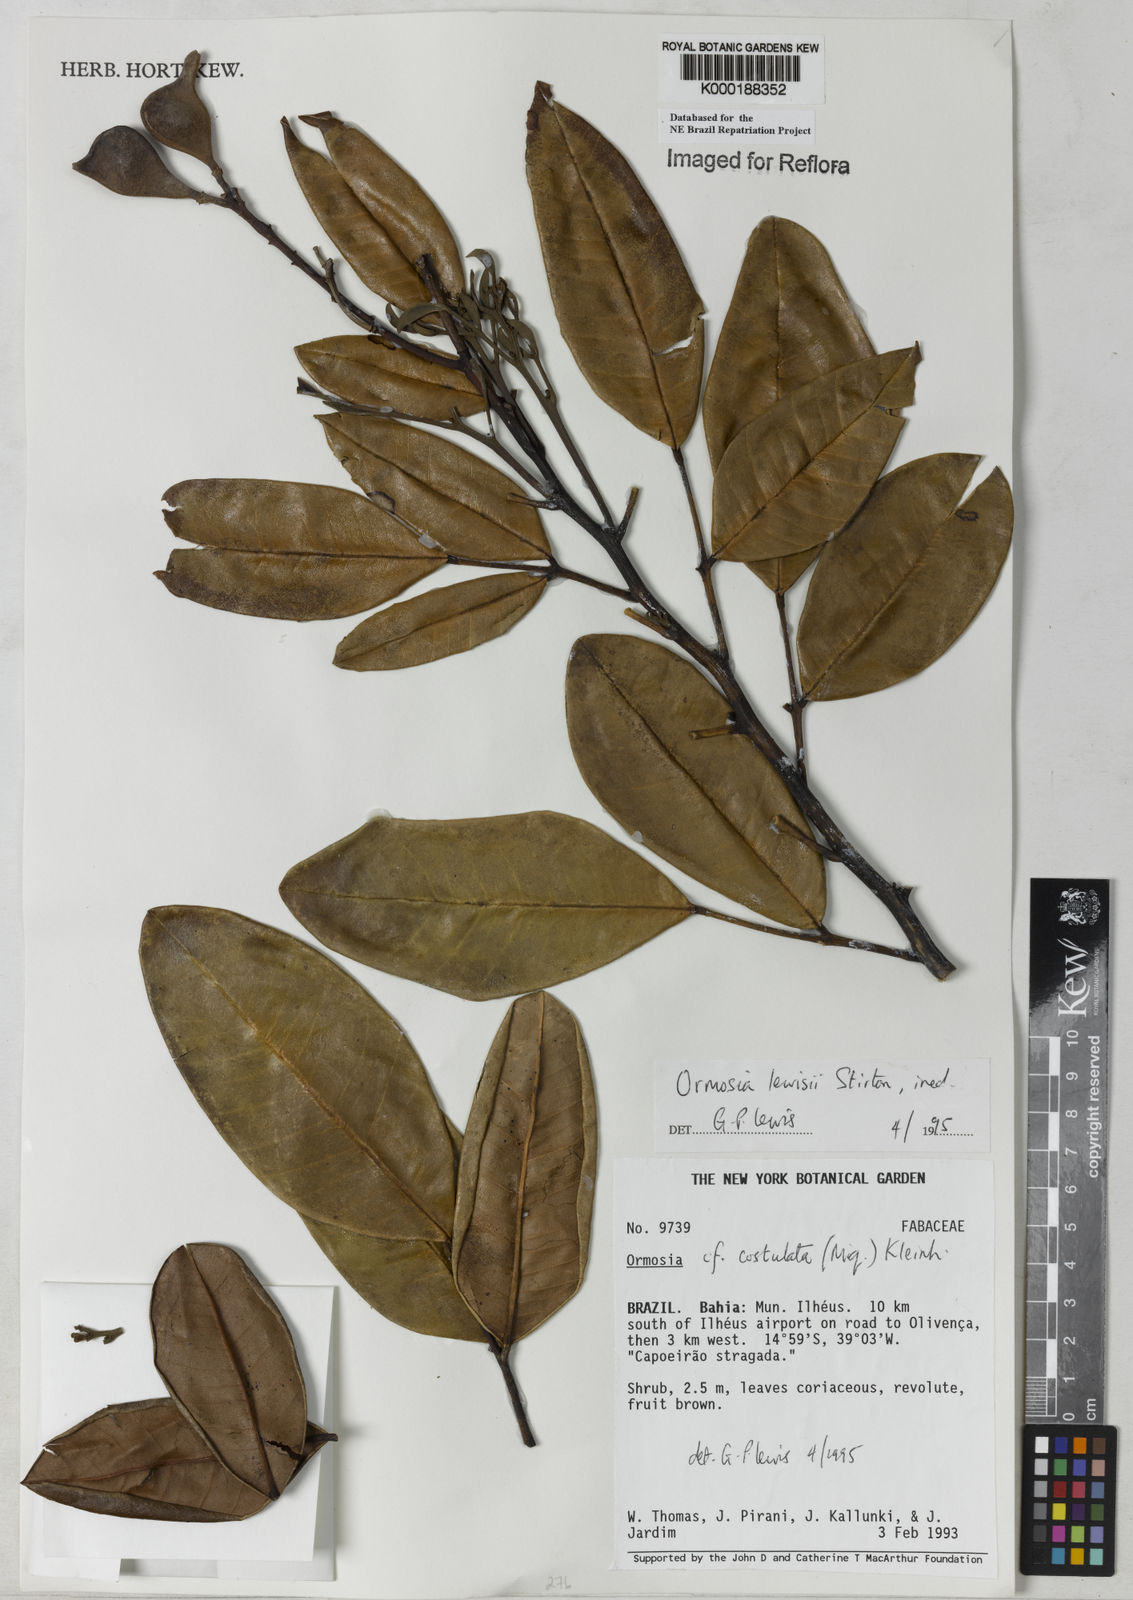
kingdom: Plantae
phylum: Tracheophyta
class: Magnoliopsida
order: Fabales
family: Fabaceae
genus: Ormosia
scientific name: Ormosia
